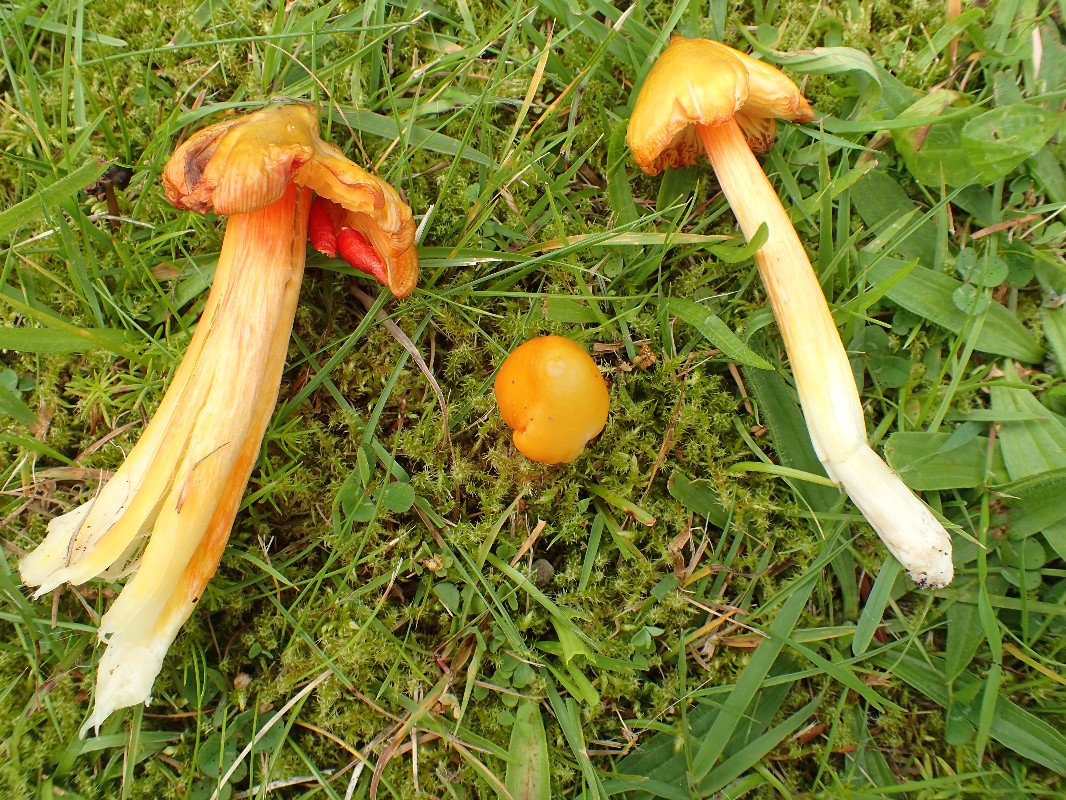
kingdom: Fungi
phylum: Basidiomycota
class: Agaricomycetes
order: Agaricales
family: Hygrophoraceae
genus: Hygrocybe
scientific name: Hygrocybe acutoconica
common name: spidspuklet vokshat
